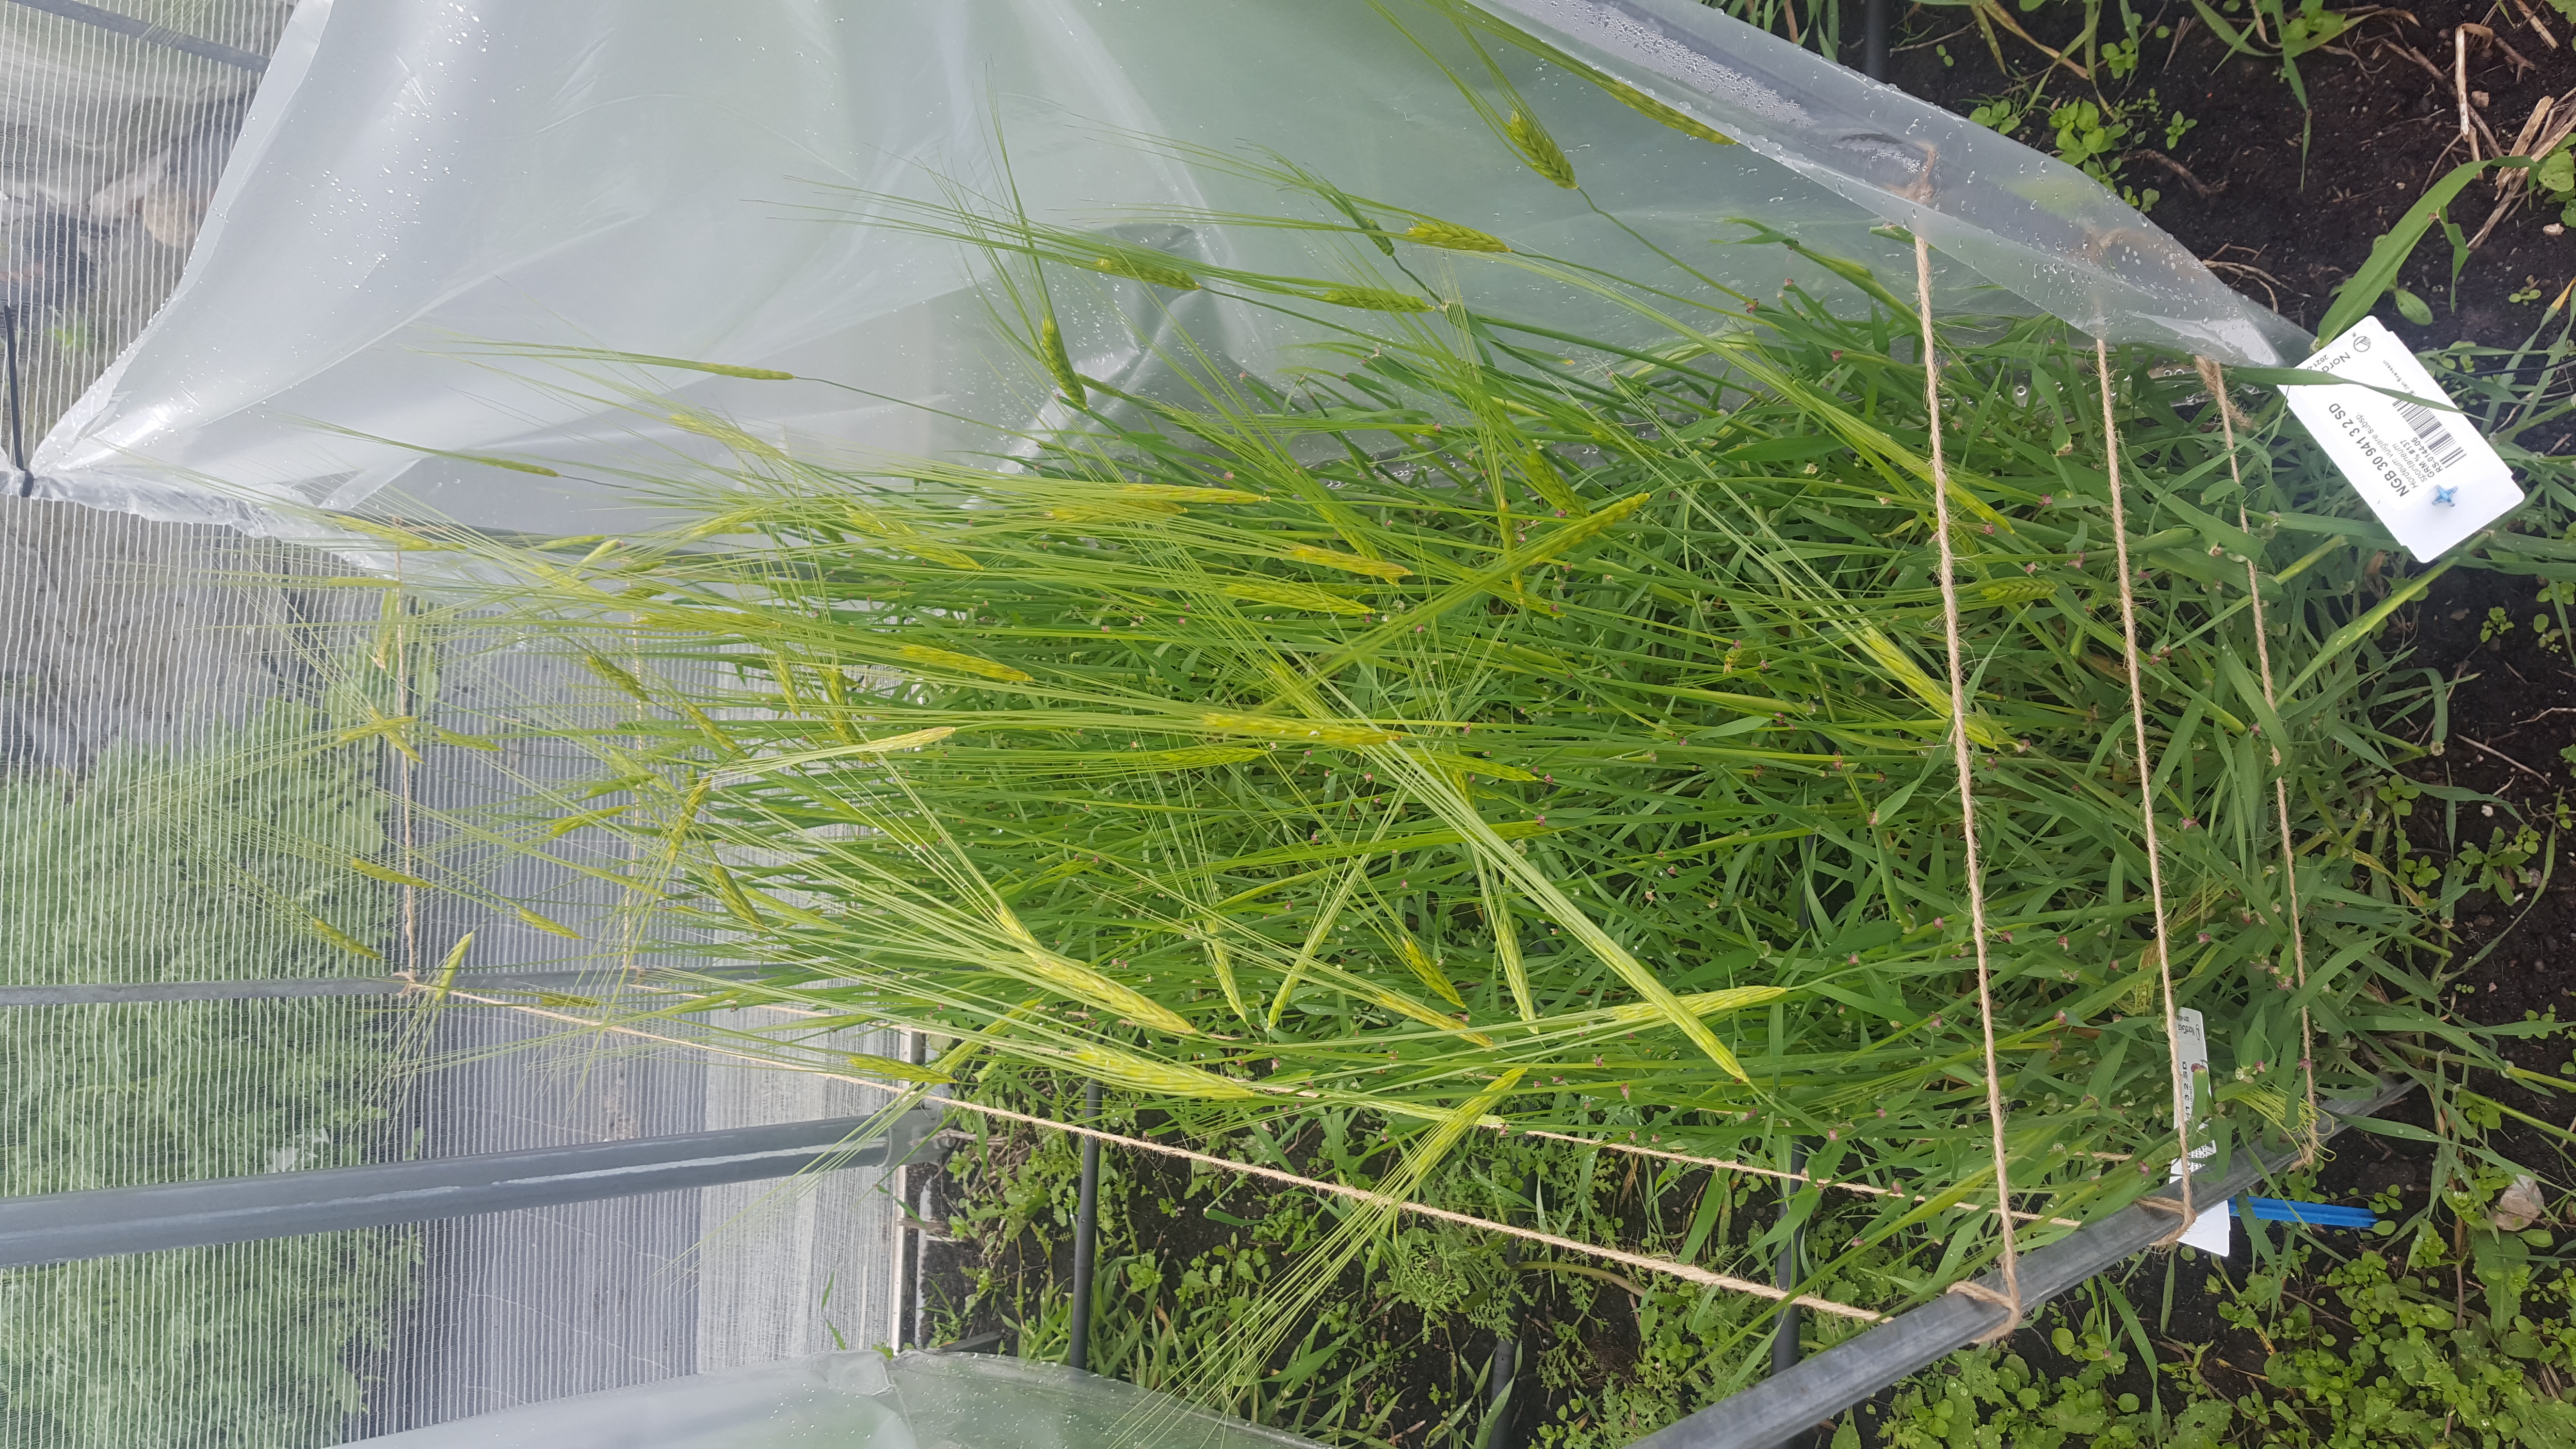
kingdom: Plantae
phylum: Tracheophyta
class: Liliopsida
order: Poales
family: Poaceae
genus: Hordeum
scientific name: Hordeum spontaneum
